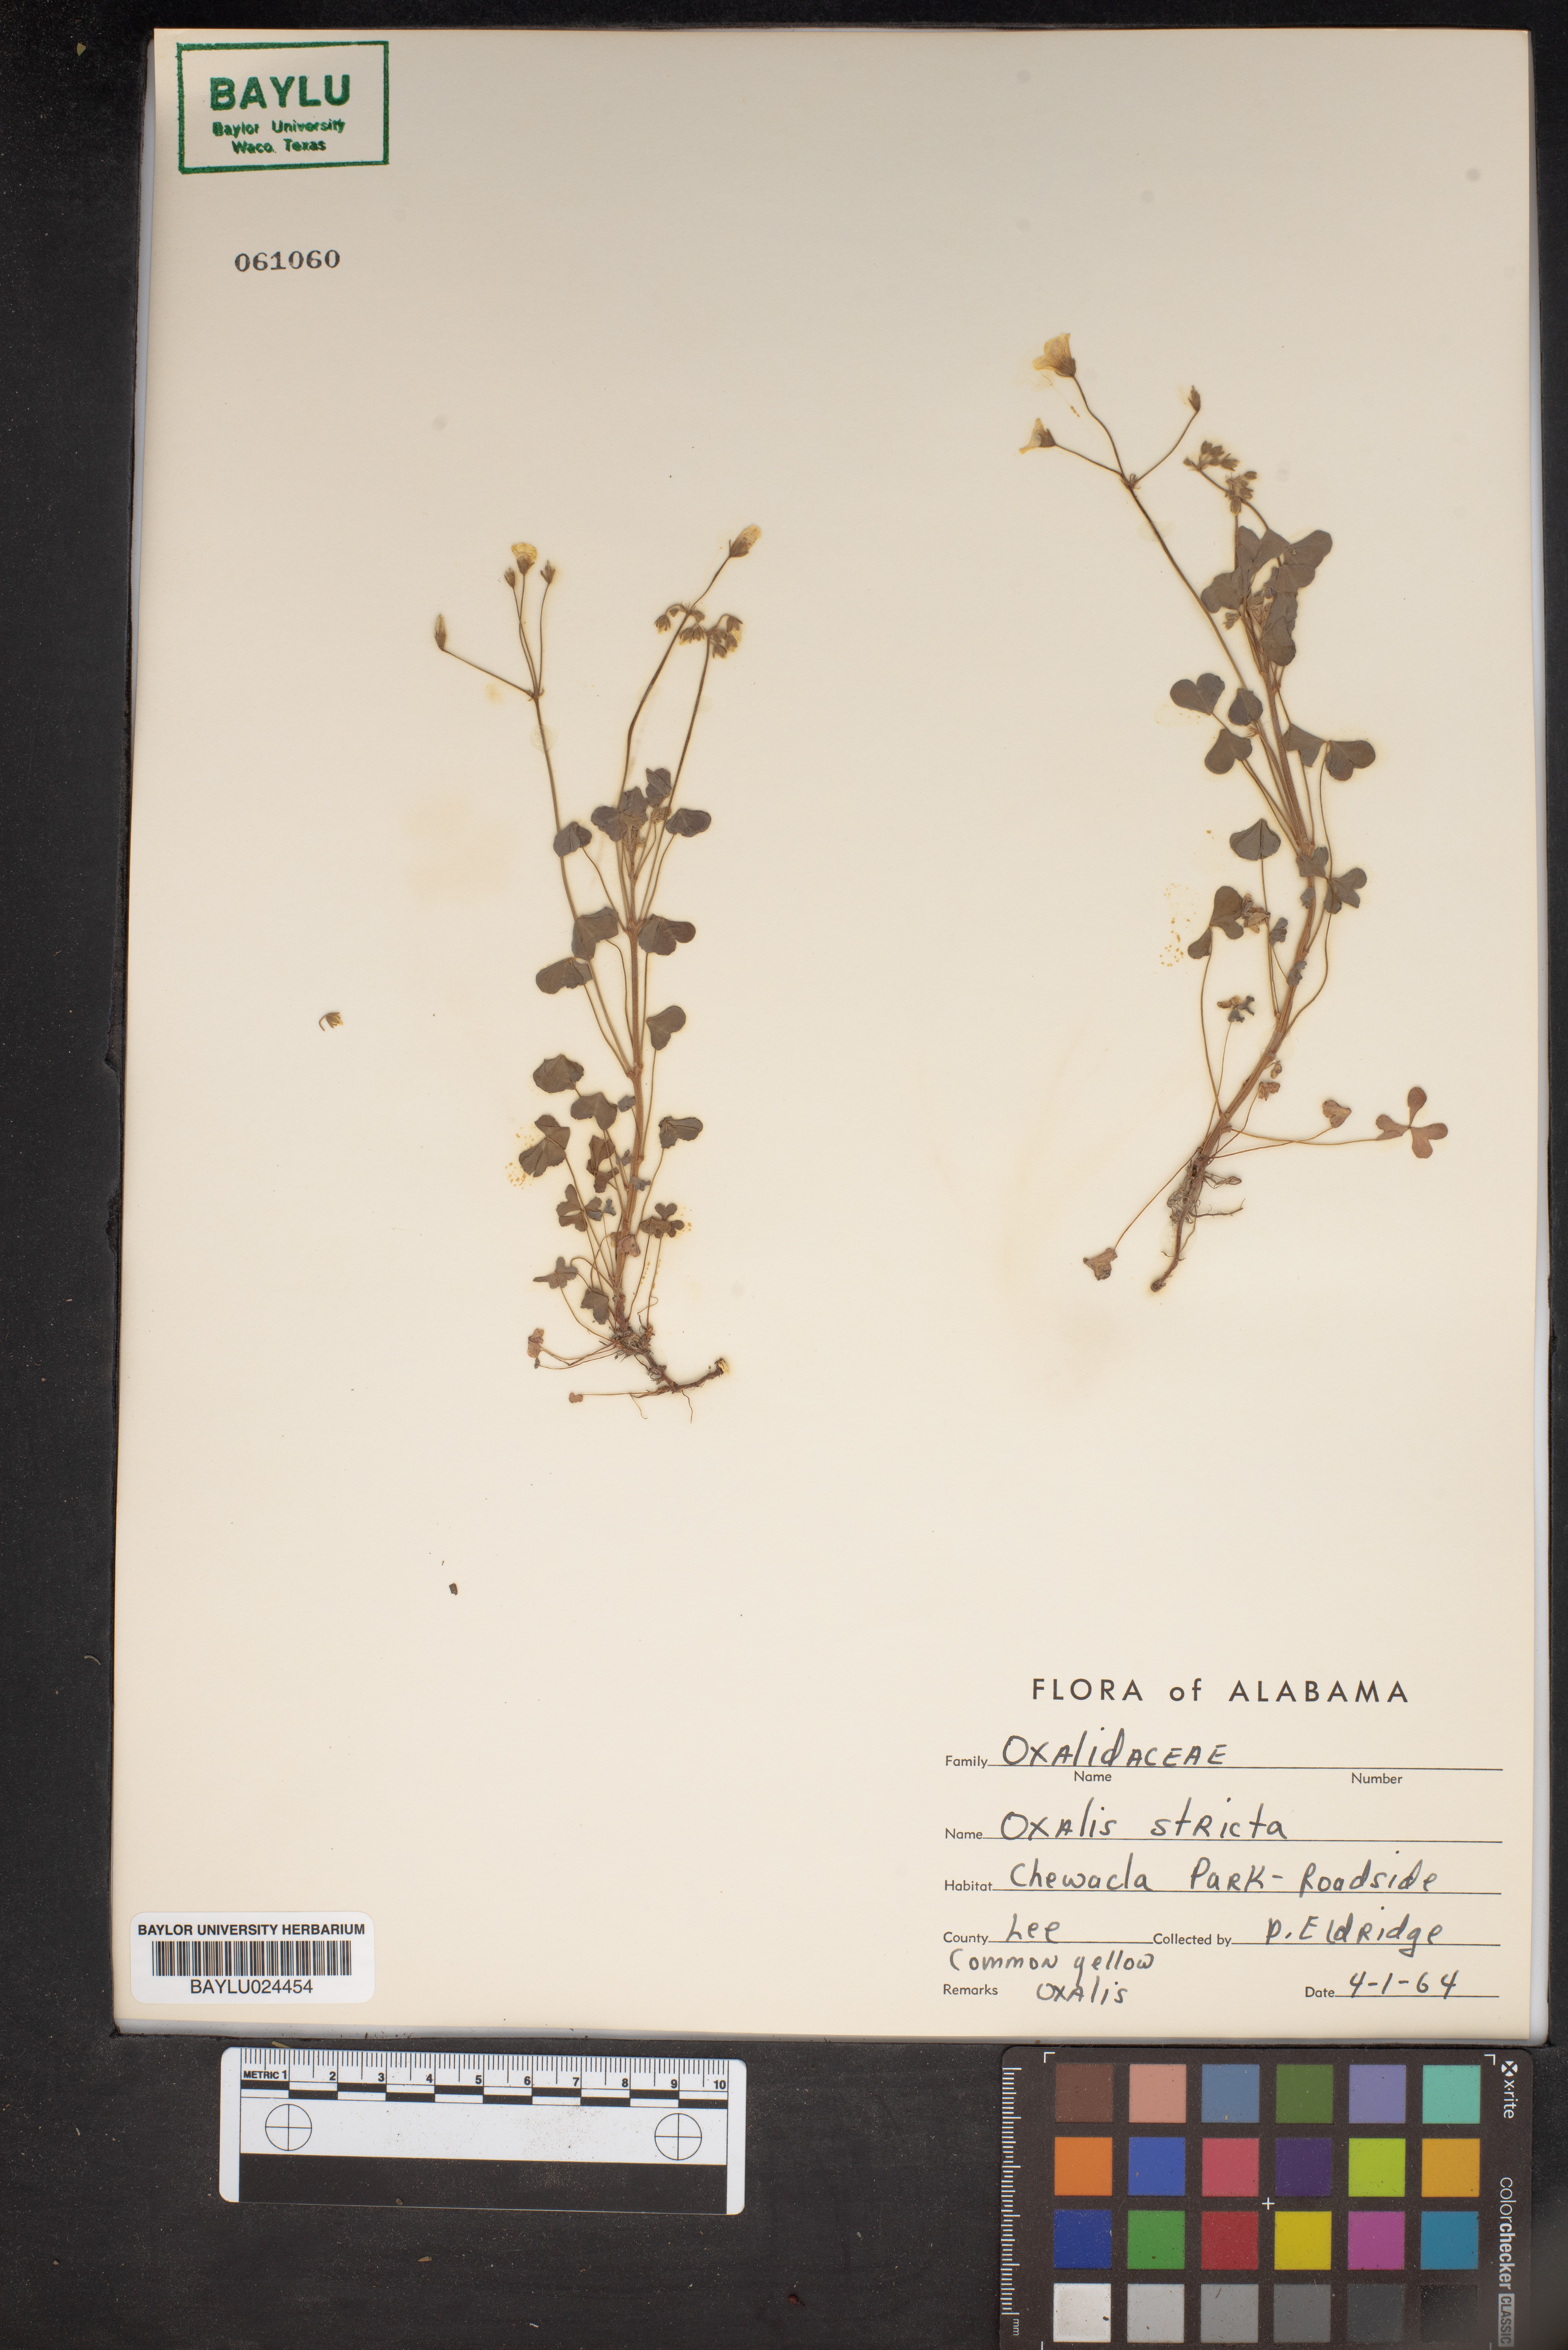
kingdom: Plantae
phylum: Tracheophyta
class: Magnoliopsida
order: Oxalidales
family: Oxalidaceae
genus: Oxalis
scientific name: Oxalis stricta
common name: Upright yellow-sorrel
